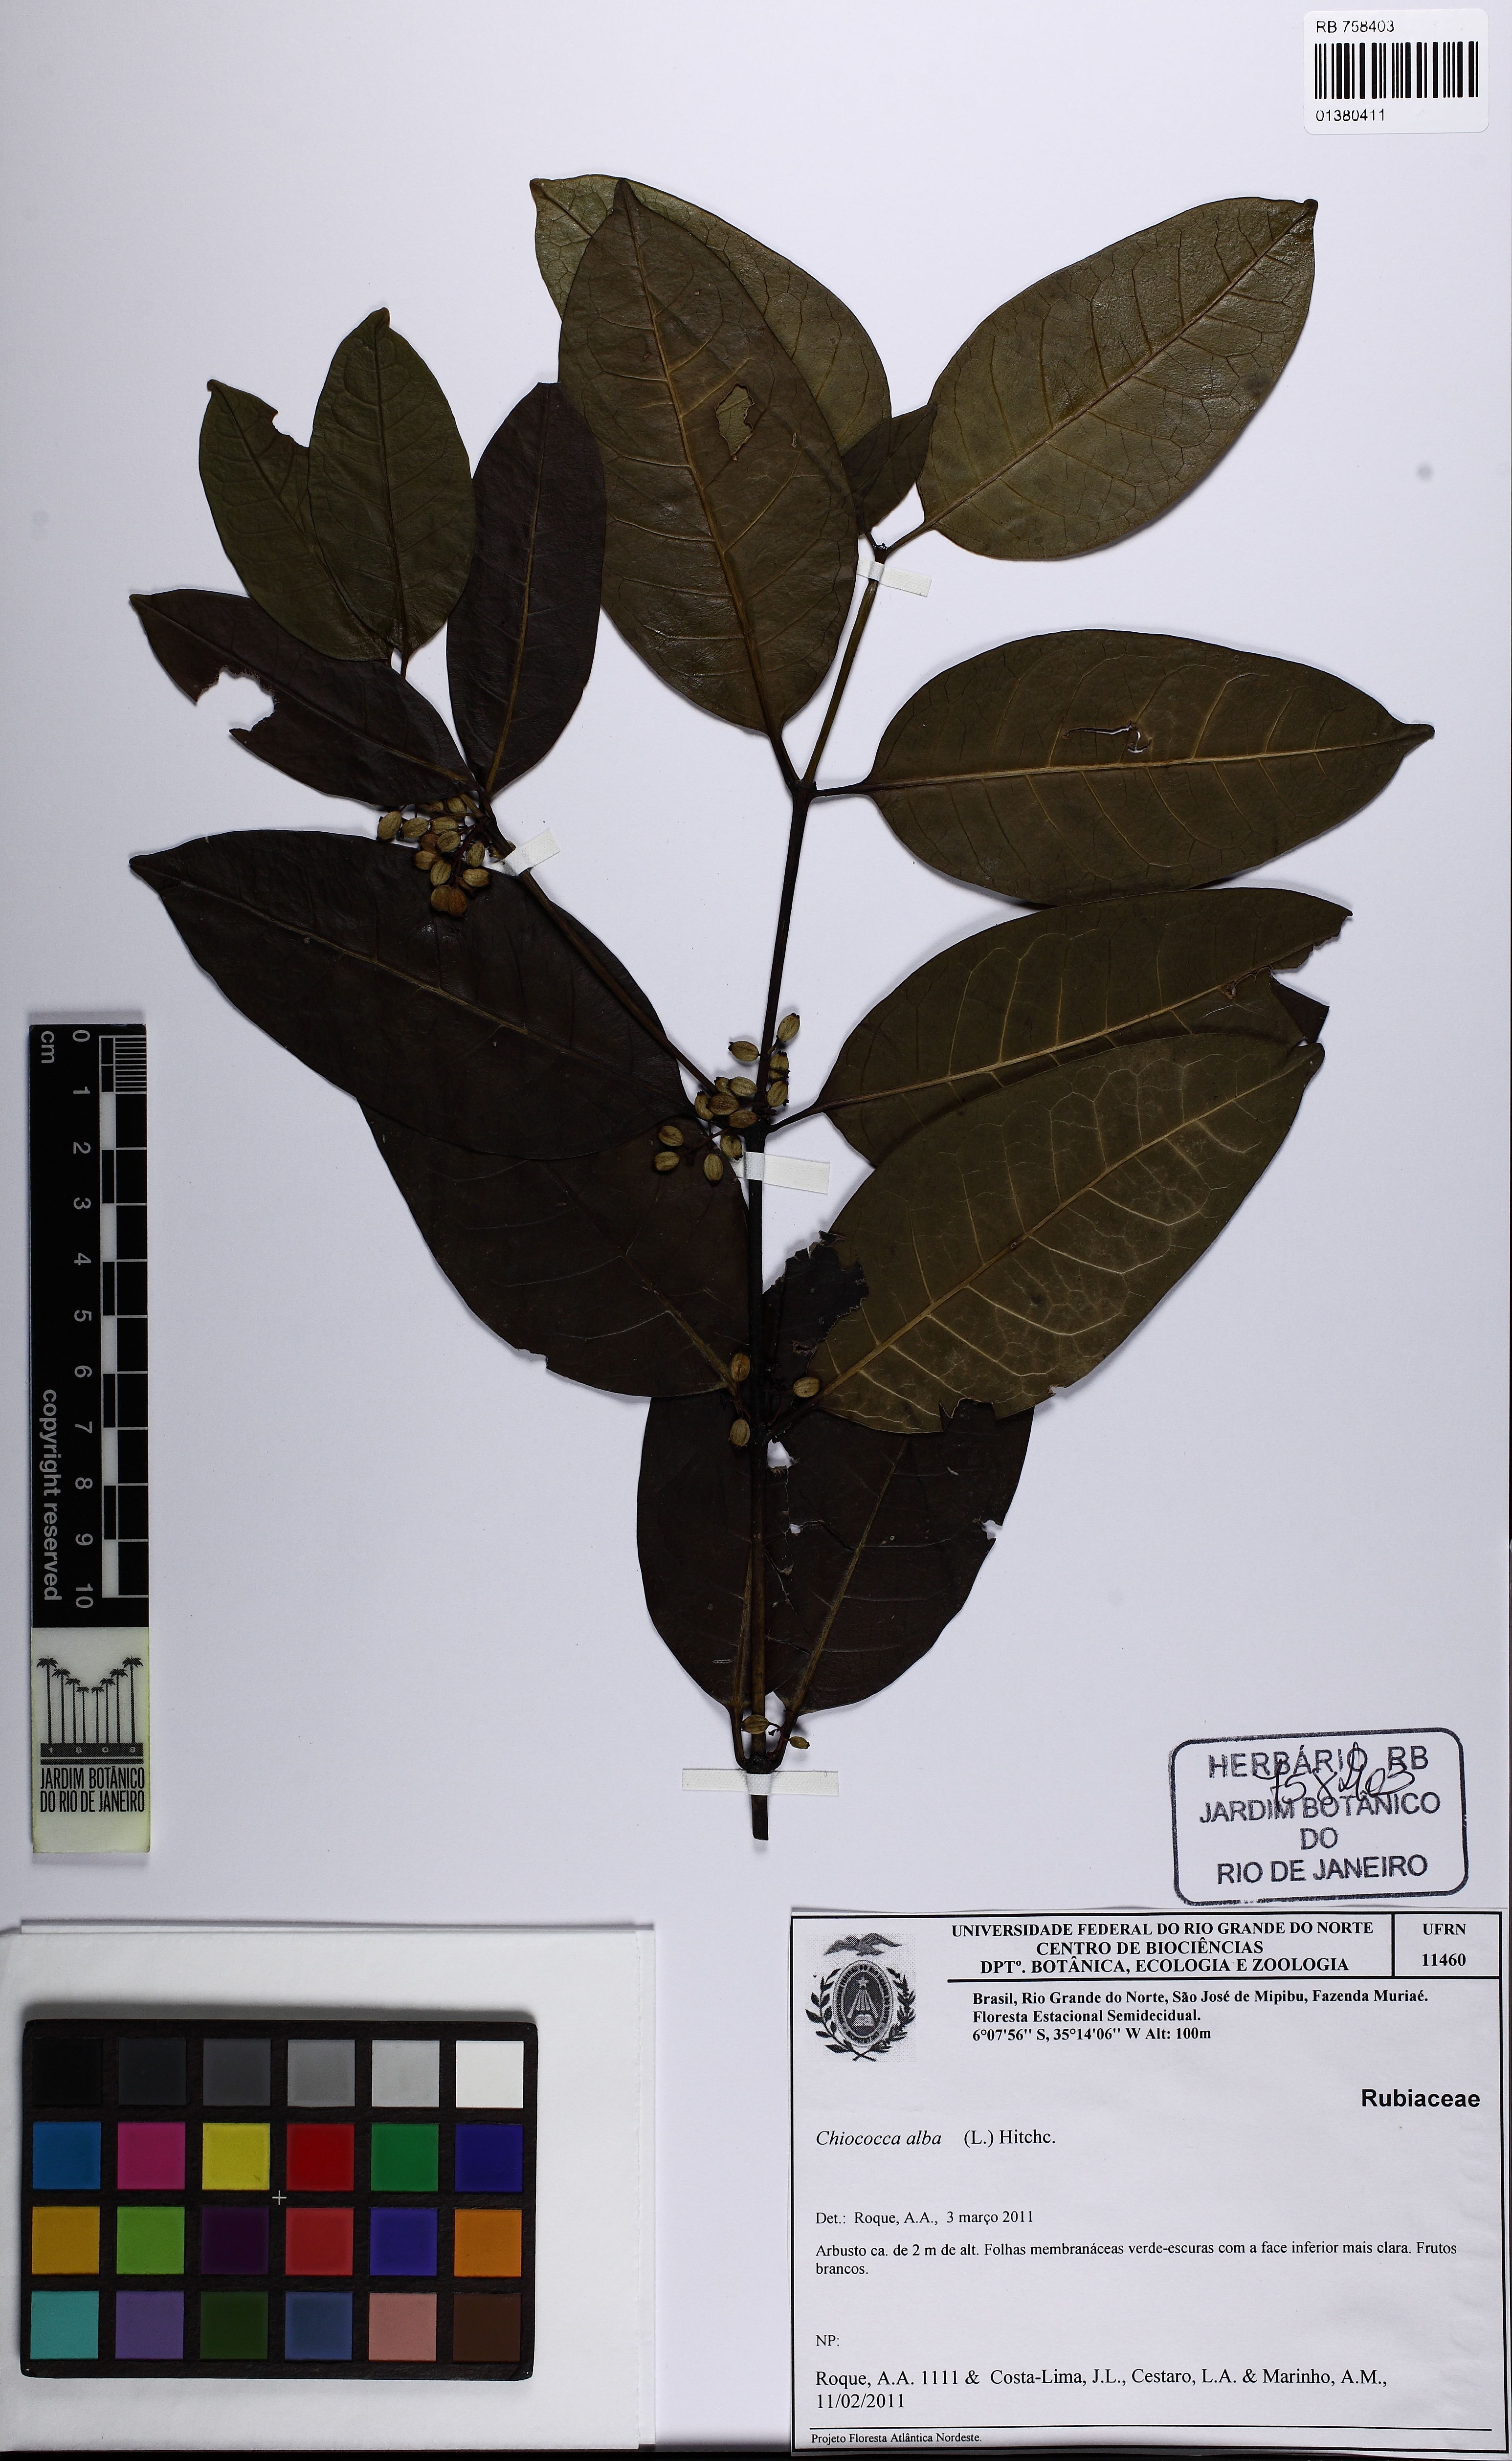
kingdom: Plantae
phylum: Tracheophyta
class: Magnoliopsida
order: Gentianales
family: Rubiaceae
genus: Chiococca
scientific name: Chiococca alba
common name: Snowberry
